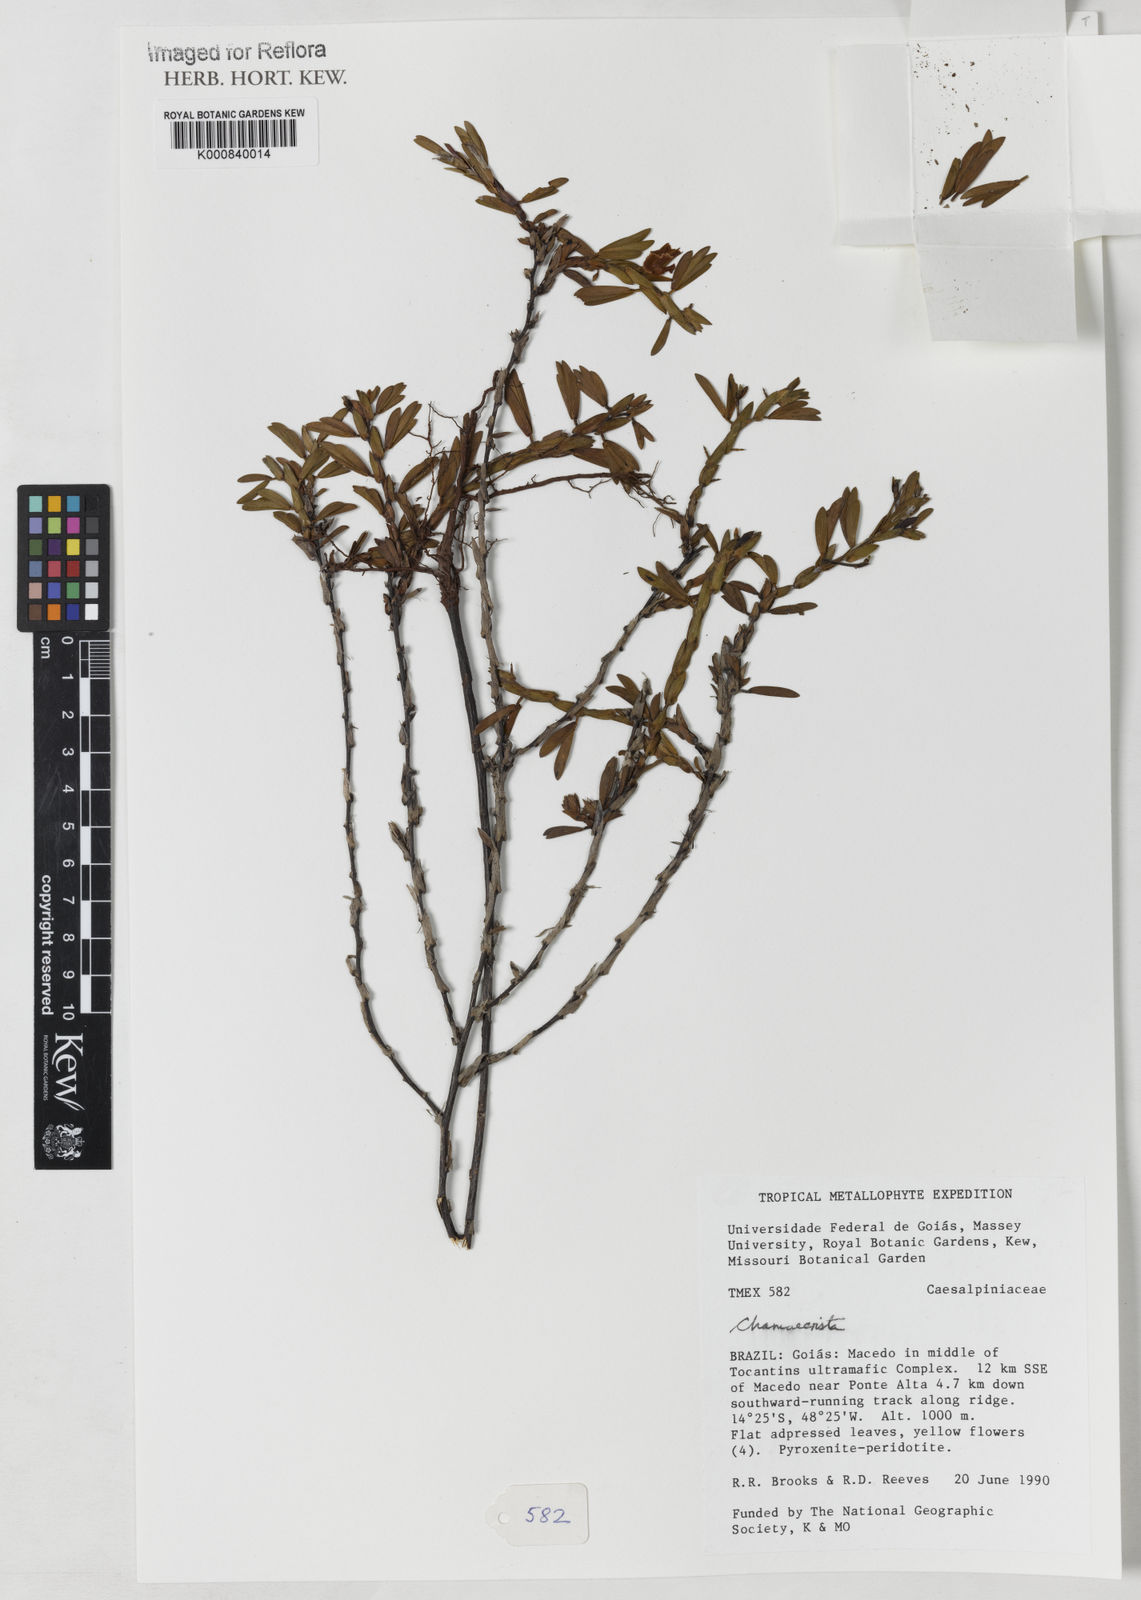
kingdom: Plantae
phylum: Tracheophyta
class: Magnoliopsida
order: Fabales
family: Fabaceae
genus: Chamaecrista
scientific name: Chamaecrista langsdorffii
